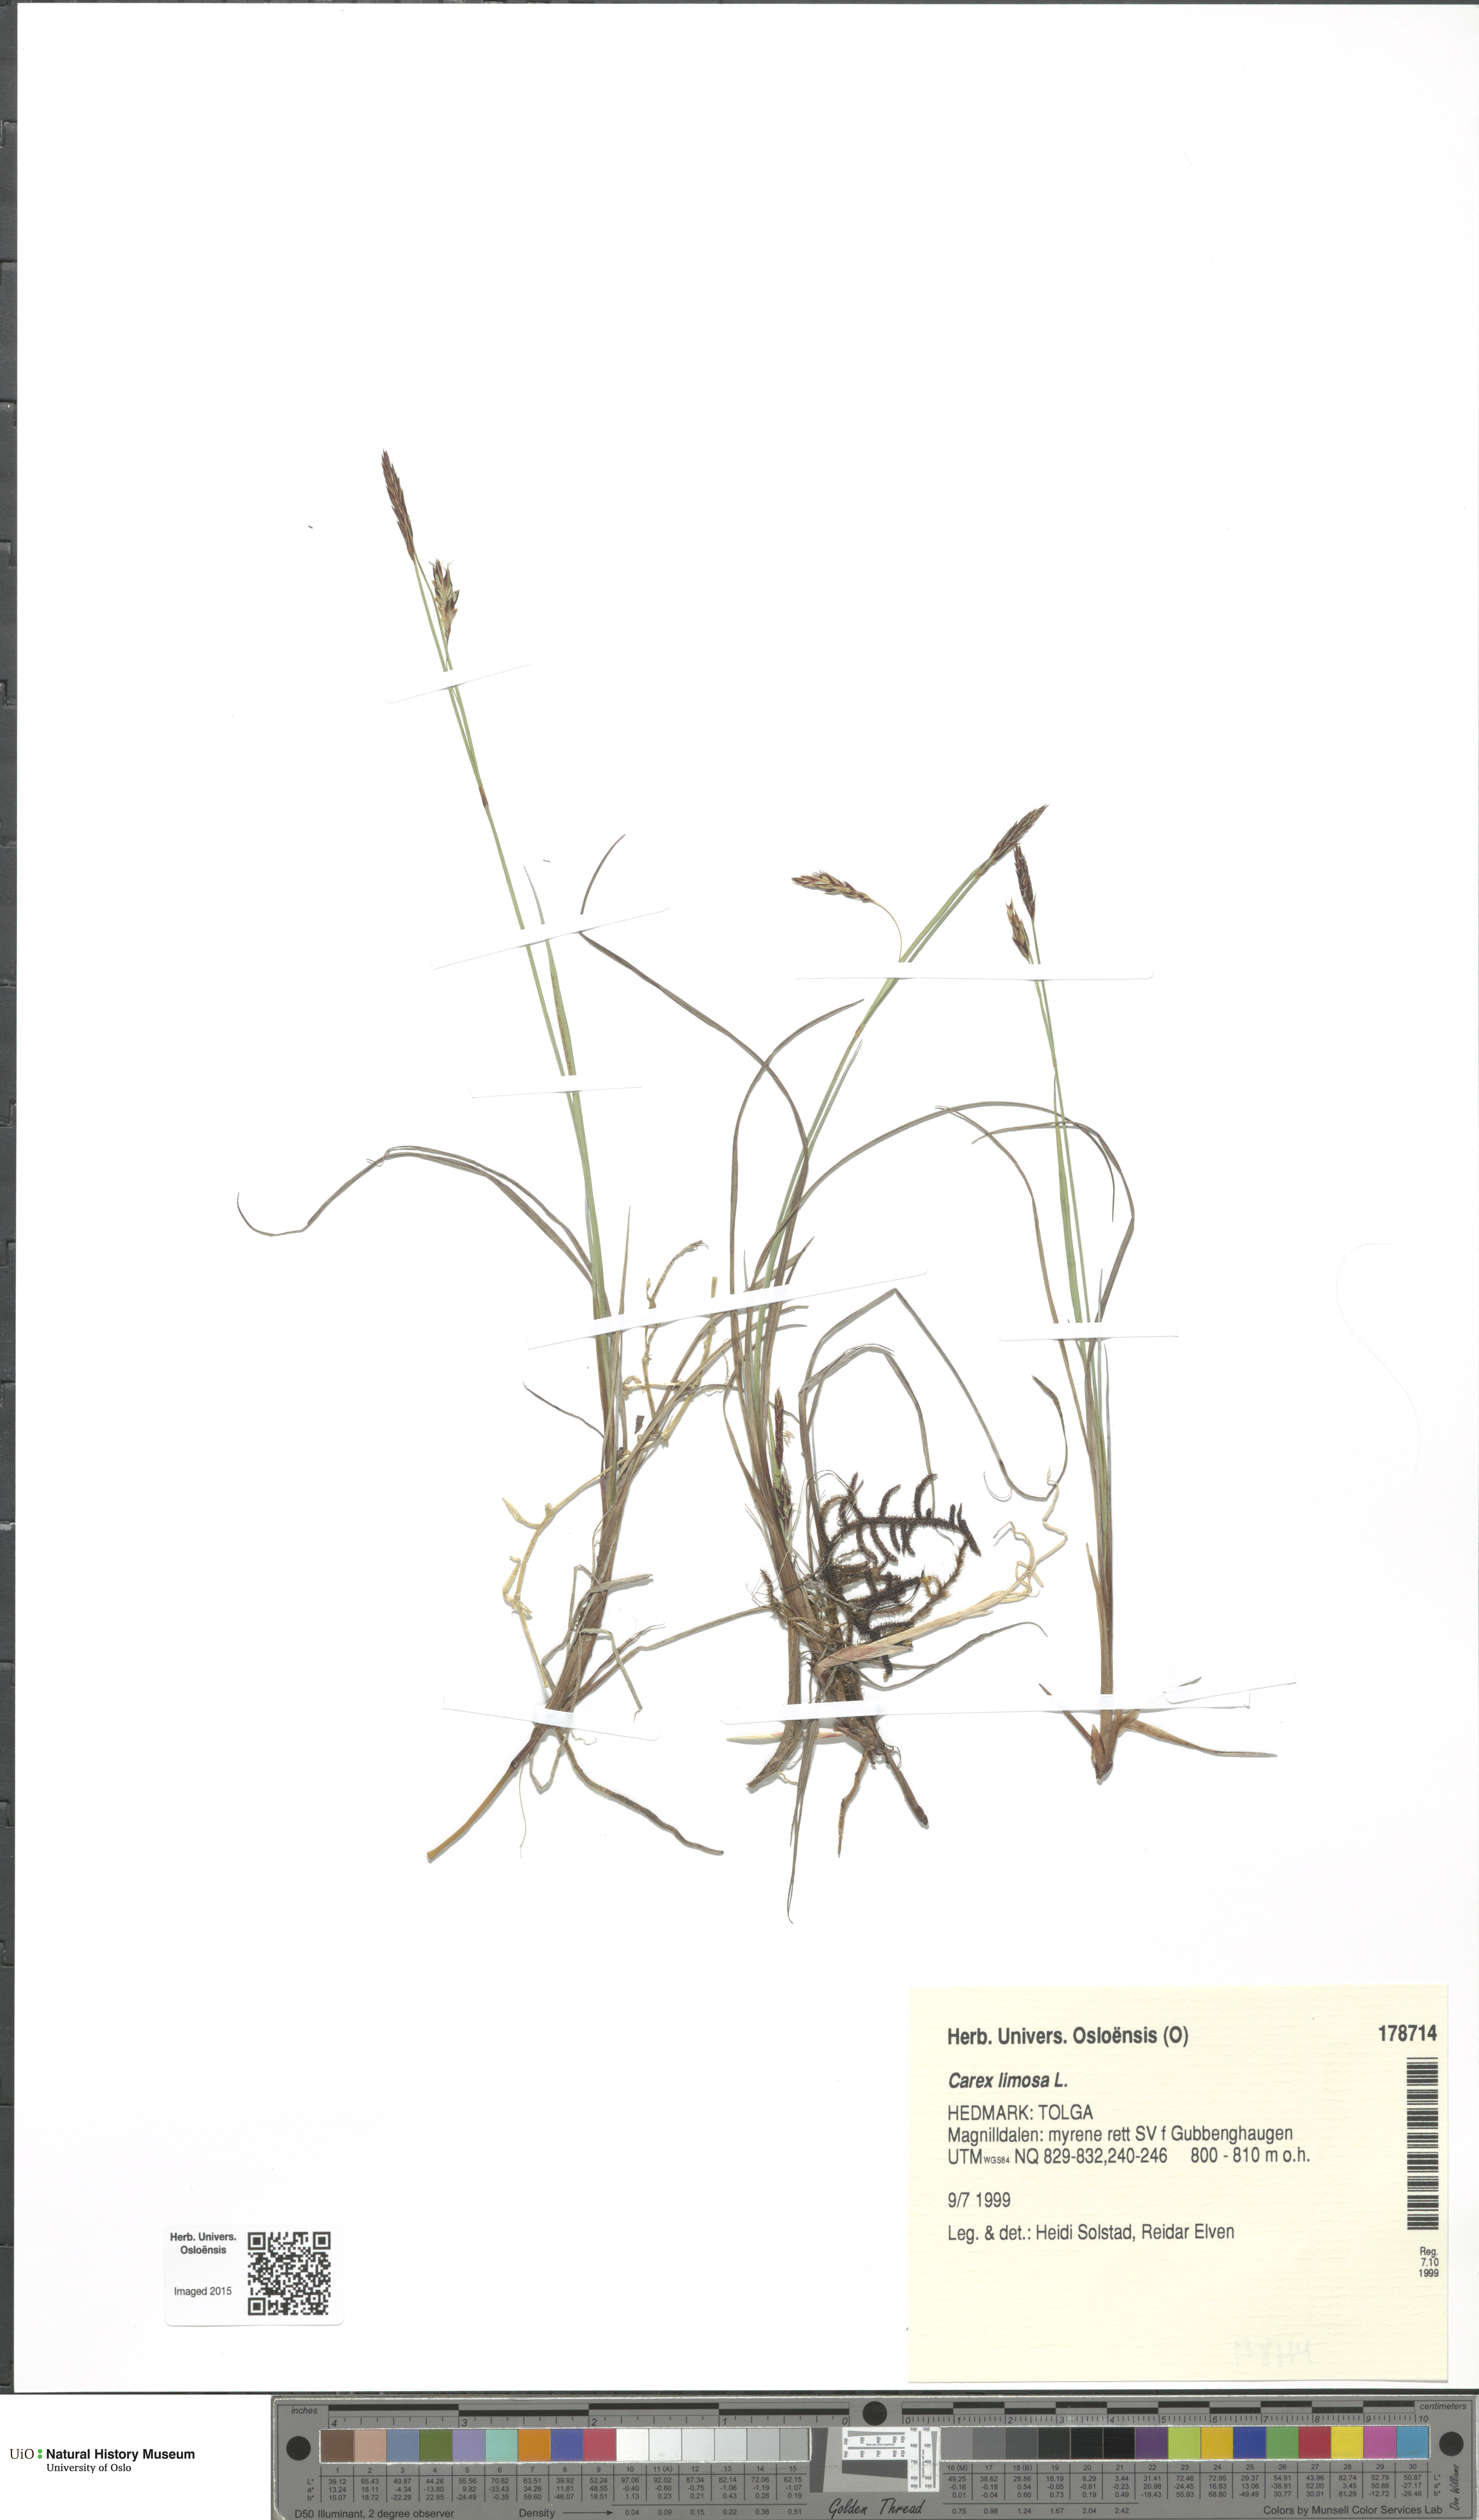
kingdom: Plantae
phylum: Tracheophyta
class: Liliopsida
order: Poales
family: Cyperaceae
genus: Carex
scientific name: Carex limosa
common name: Bog sedge
